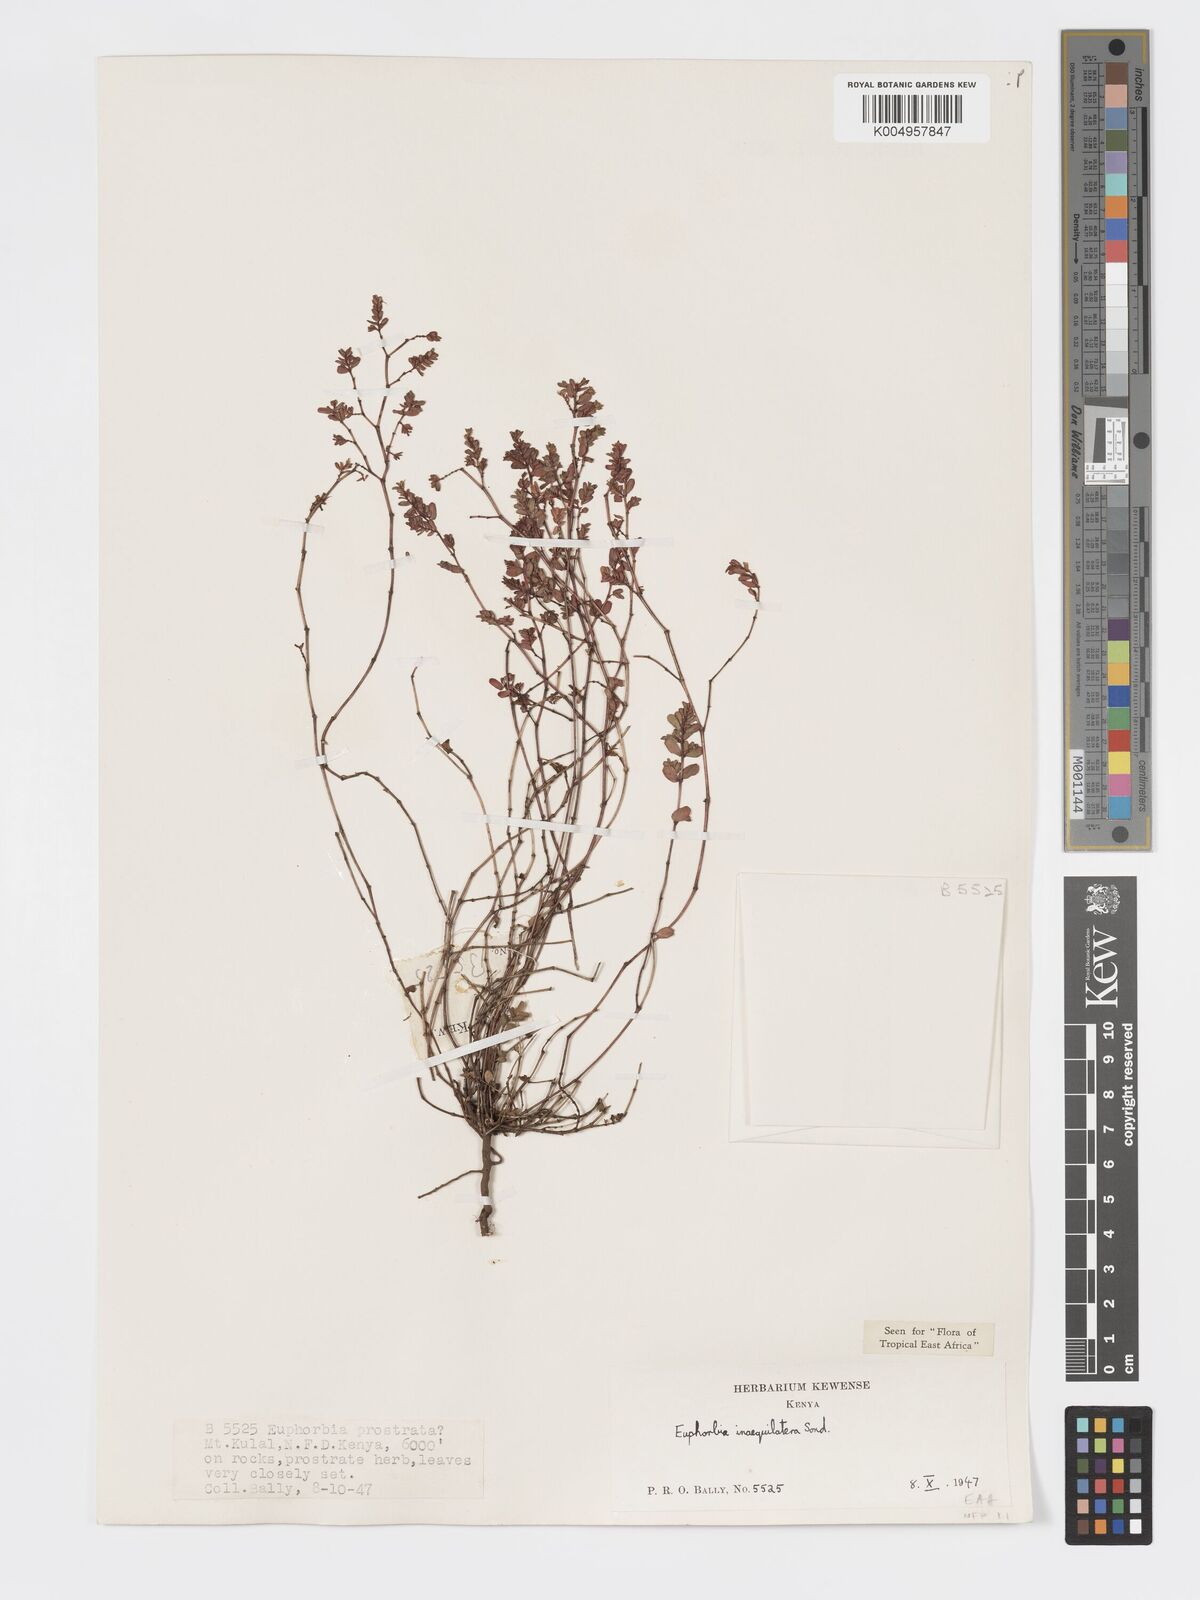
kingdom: Plantae
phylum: Tracheophyta
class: Magnoliopsida
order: Malpighiales
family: Euphorbiaceae
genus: Euphorbia
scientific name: Euphorbia inaequilatera
